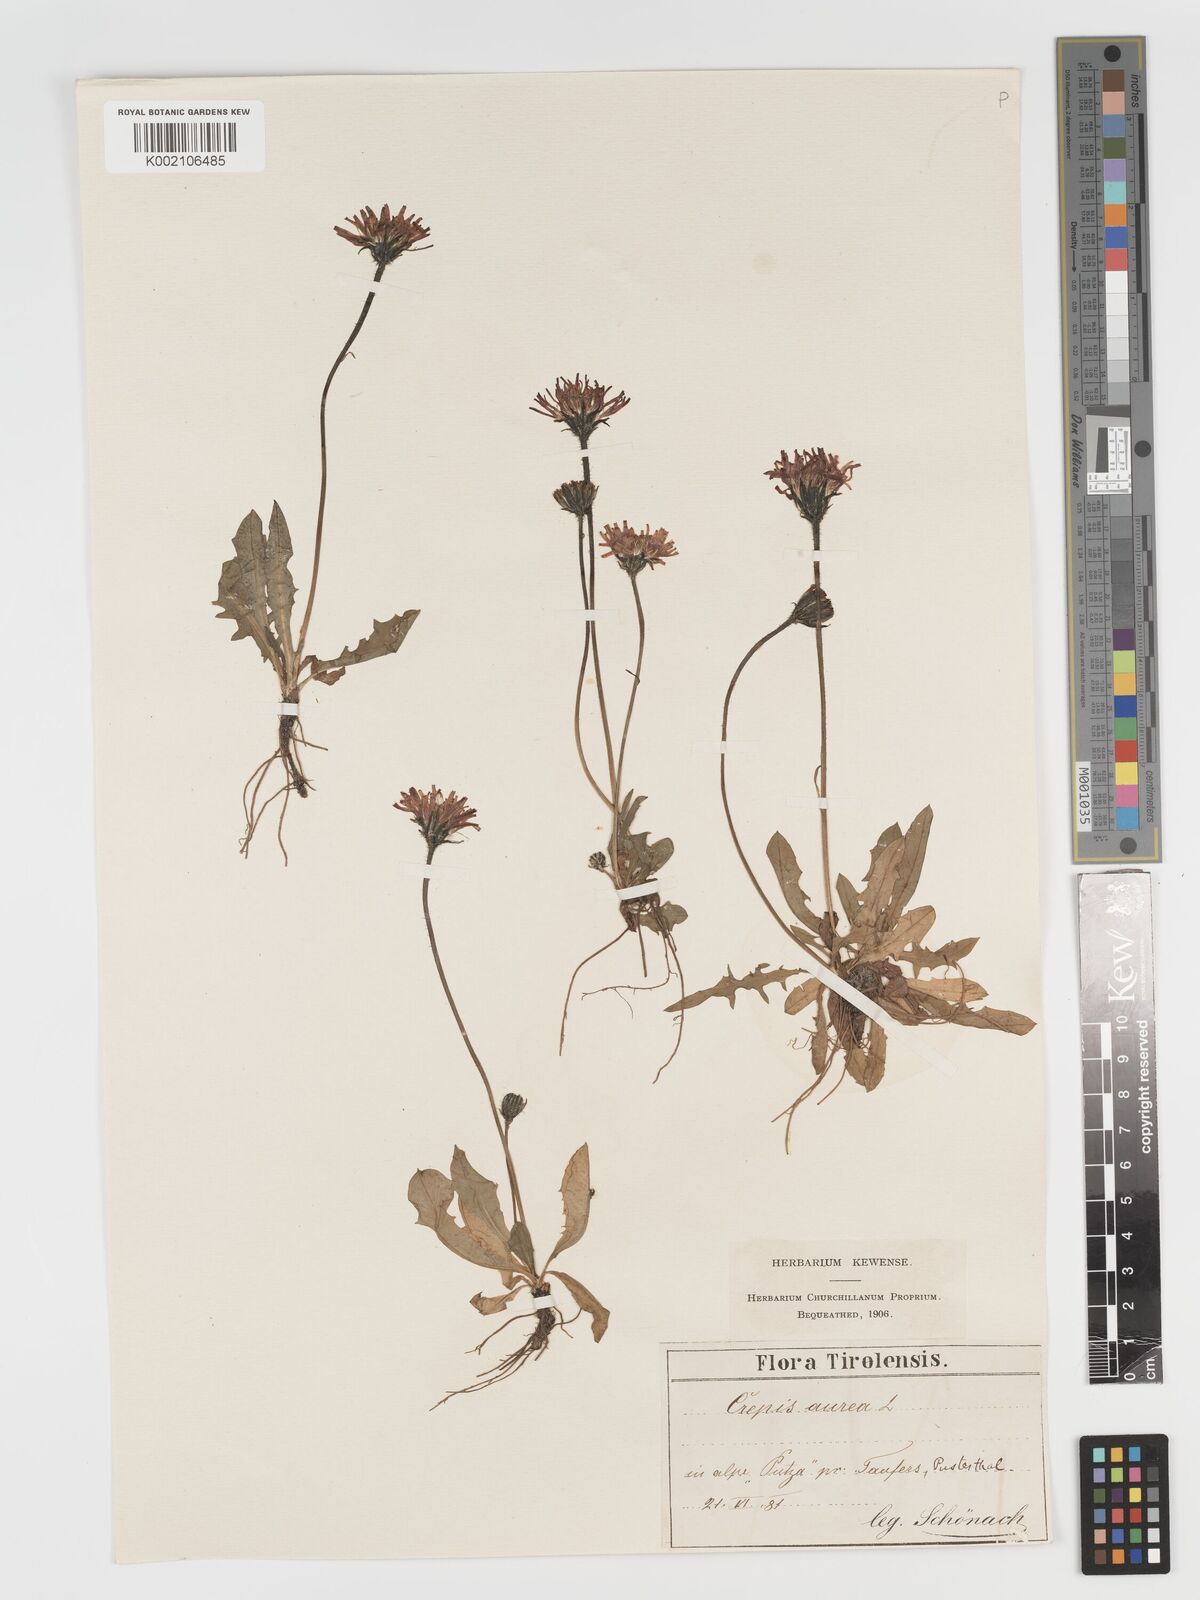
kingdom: Plantae
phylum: Tracheophyta
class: Magnoliopsida
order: Asterales
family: Asteraceae
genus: Crepis
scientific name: Crepis aurea
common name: Golden hawk's-beard
